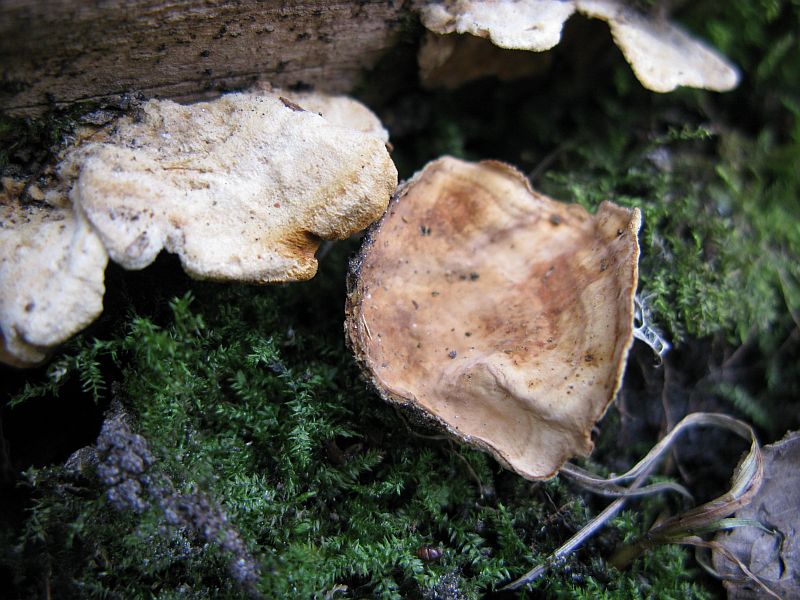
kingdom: Fungi
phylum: Basidiomycota
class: Agaricomycetes
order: Russulales
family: Stereaceae
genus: Stereum
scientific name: Stereum subtomentosum
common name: smuk lædersvamp
